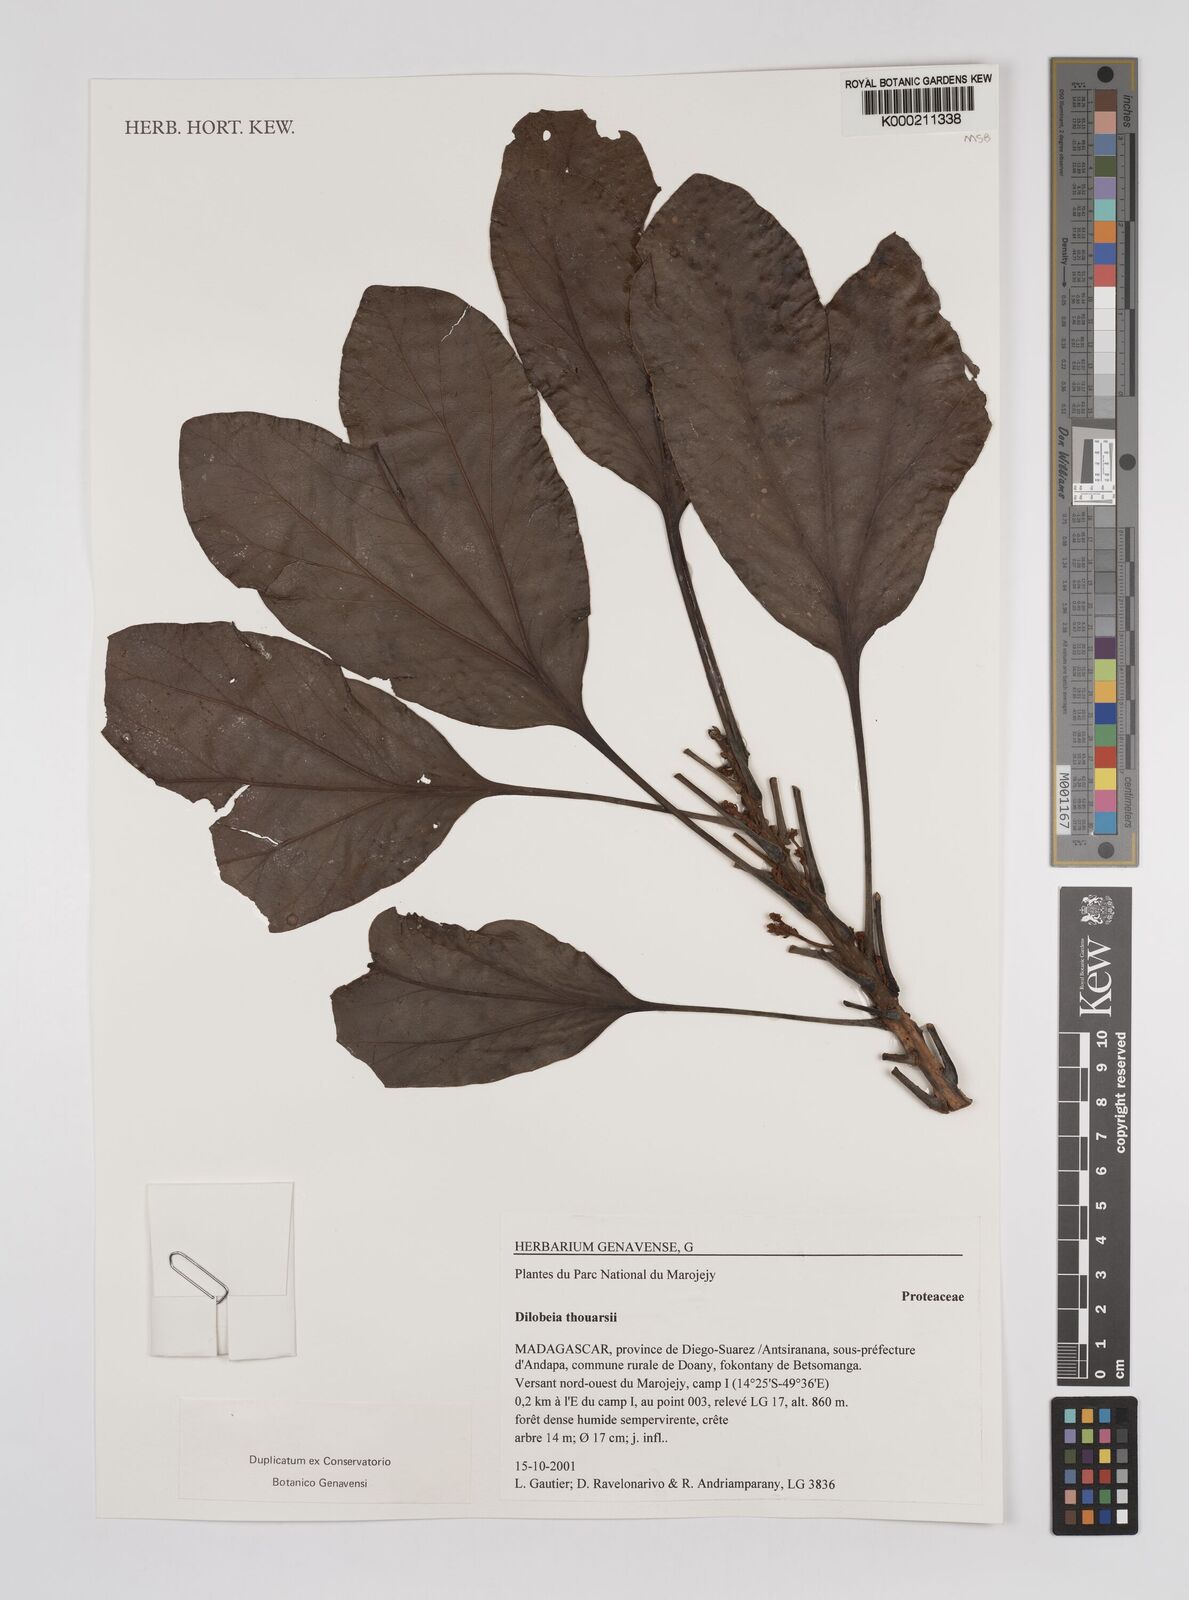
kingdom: Plantae
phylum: Tracheophyta
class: Magnoliopsida
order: Proteales
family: Proteaceae
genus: Dilobeia
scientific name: Dilobeia thouarsii
